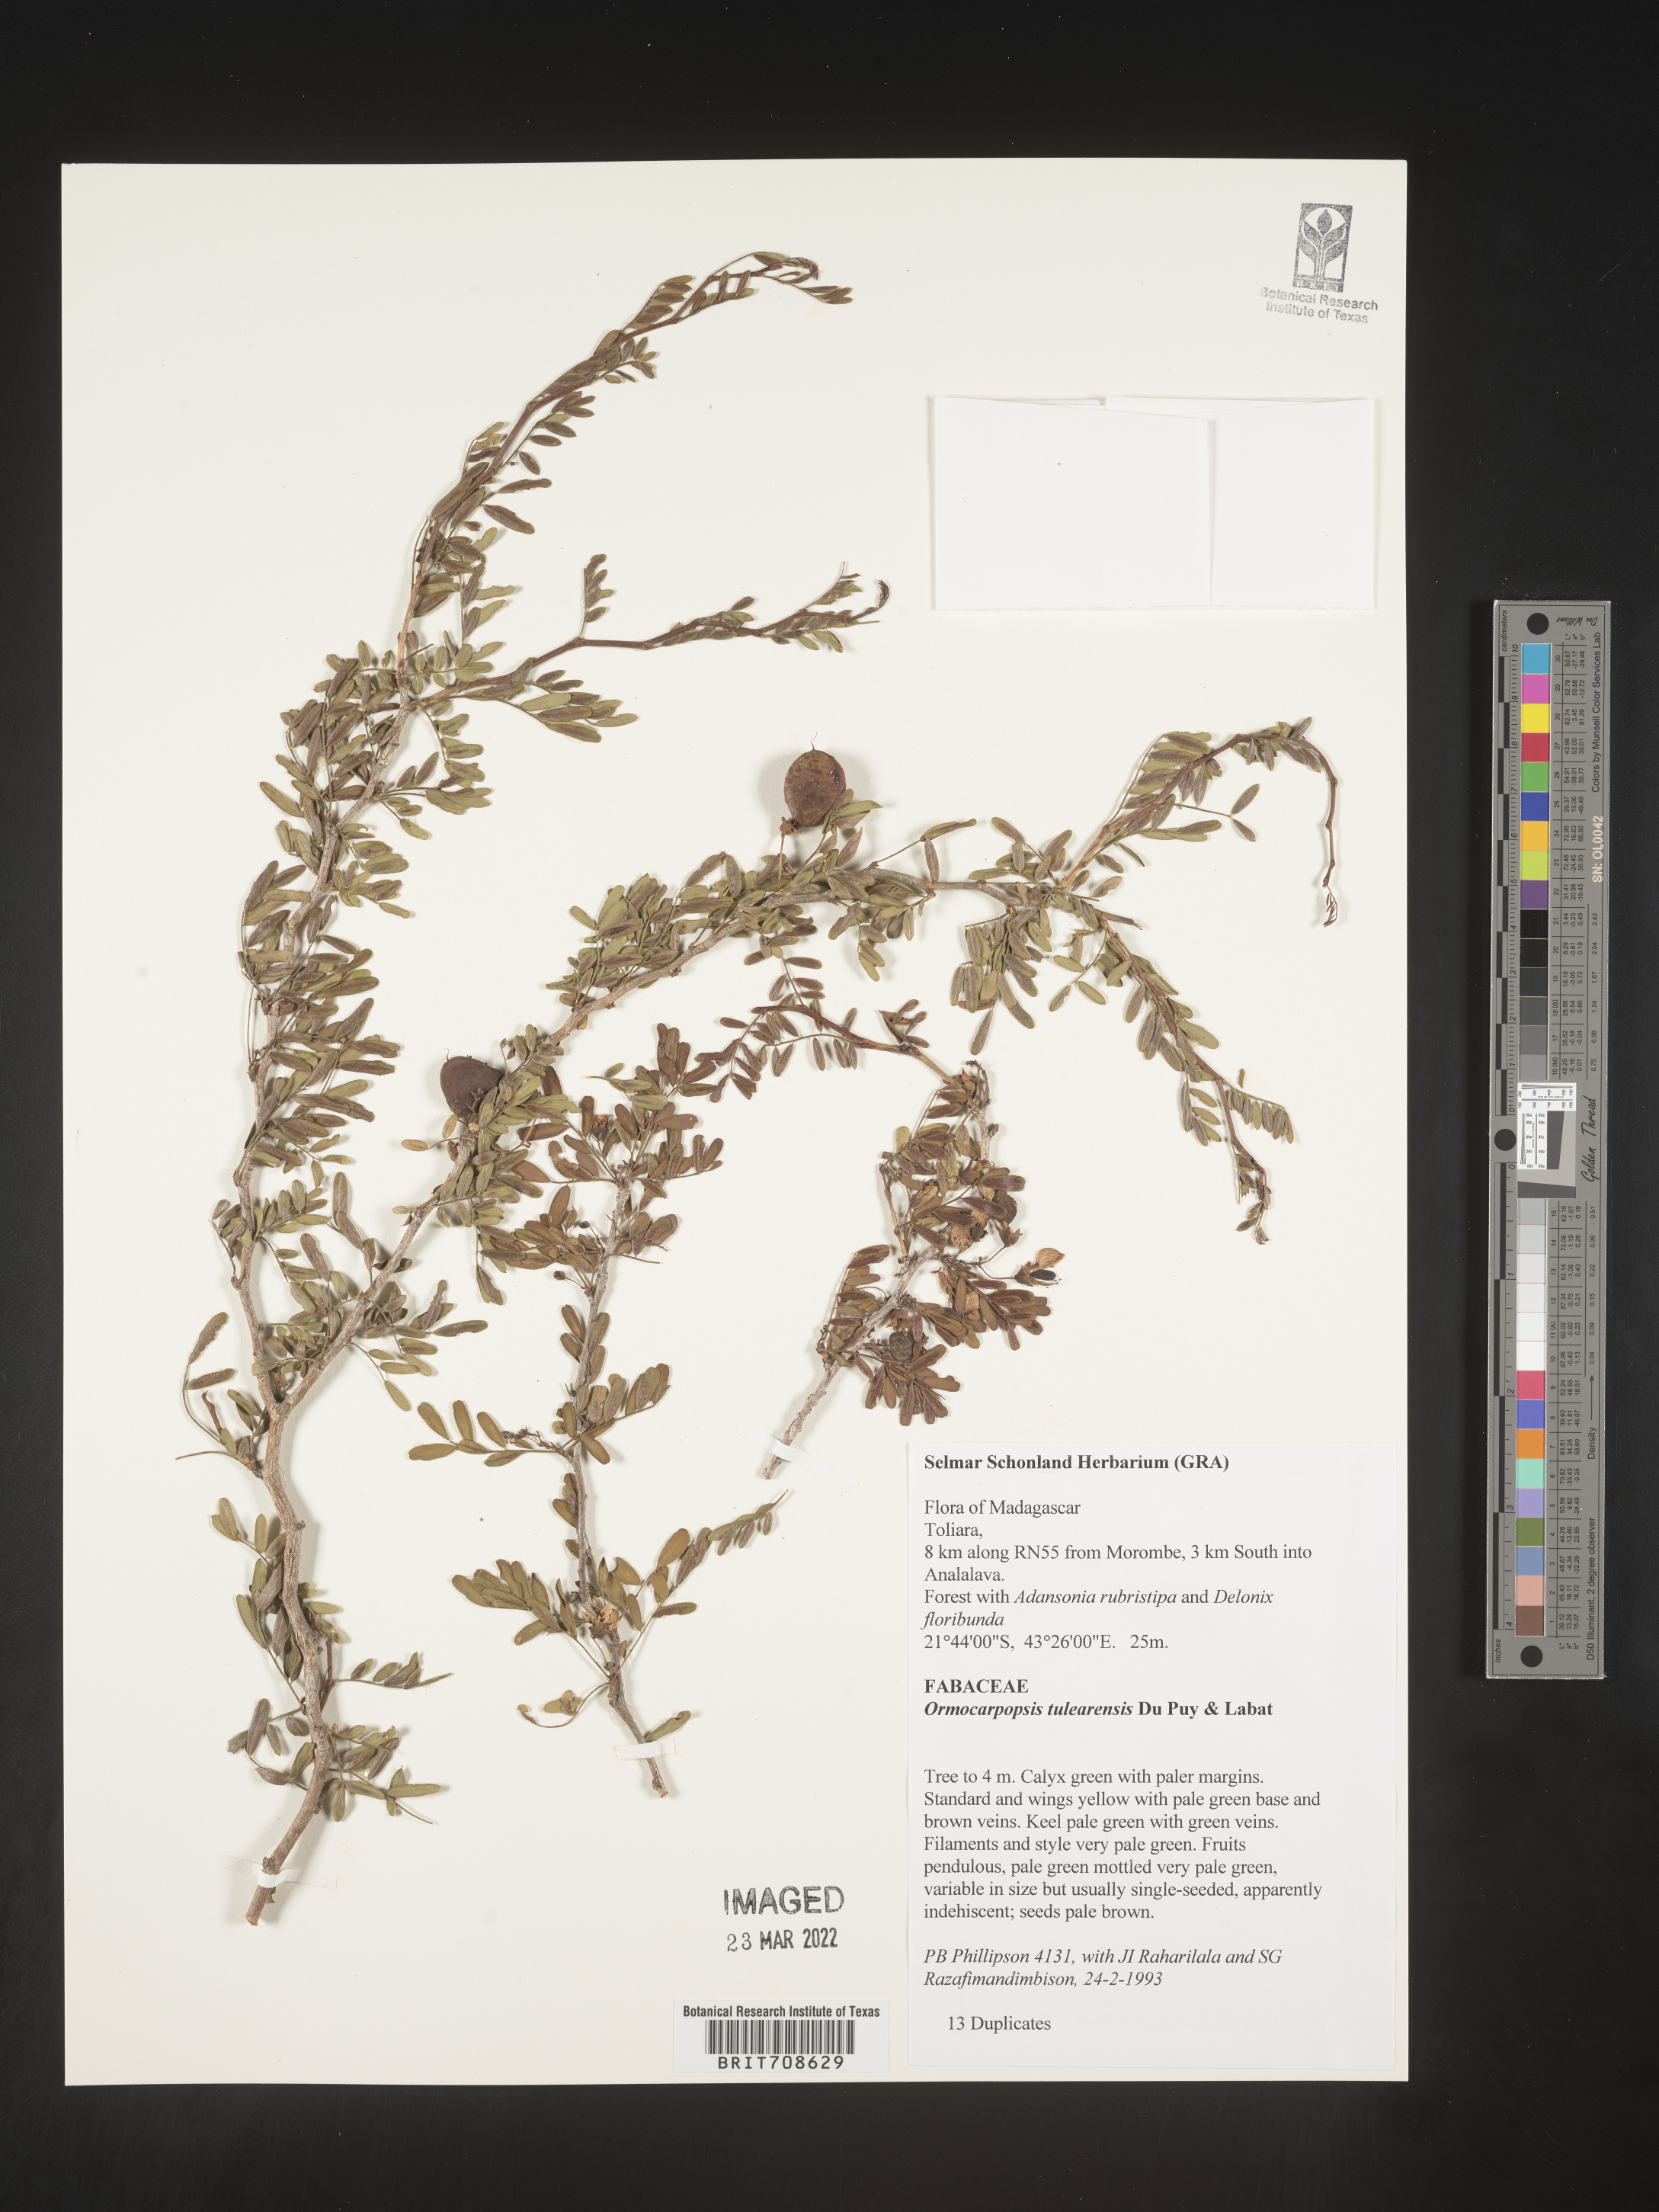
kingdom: Plantae
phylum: Tracheophyta
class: Magnoliopsida
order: Fabales
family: Fabaceae
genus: Ormocarpopsis
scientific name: Ormocarpopsis
